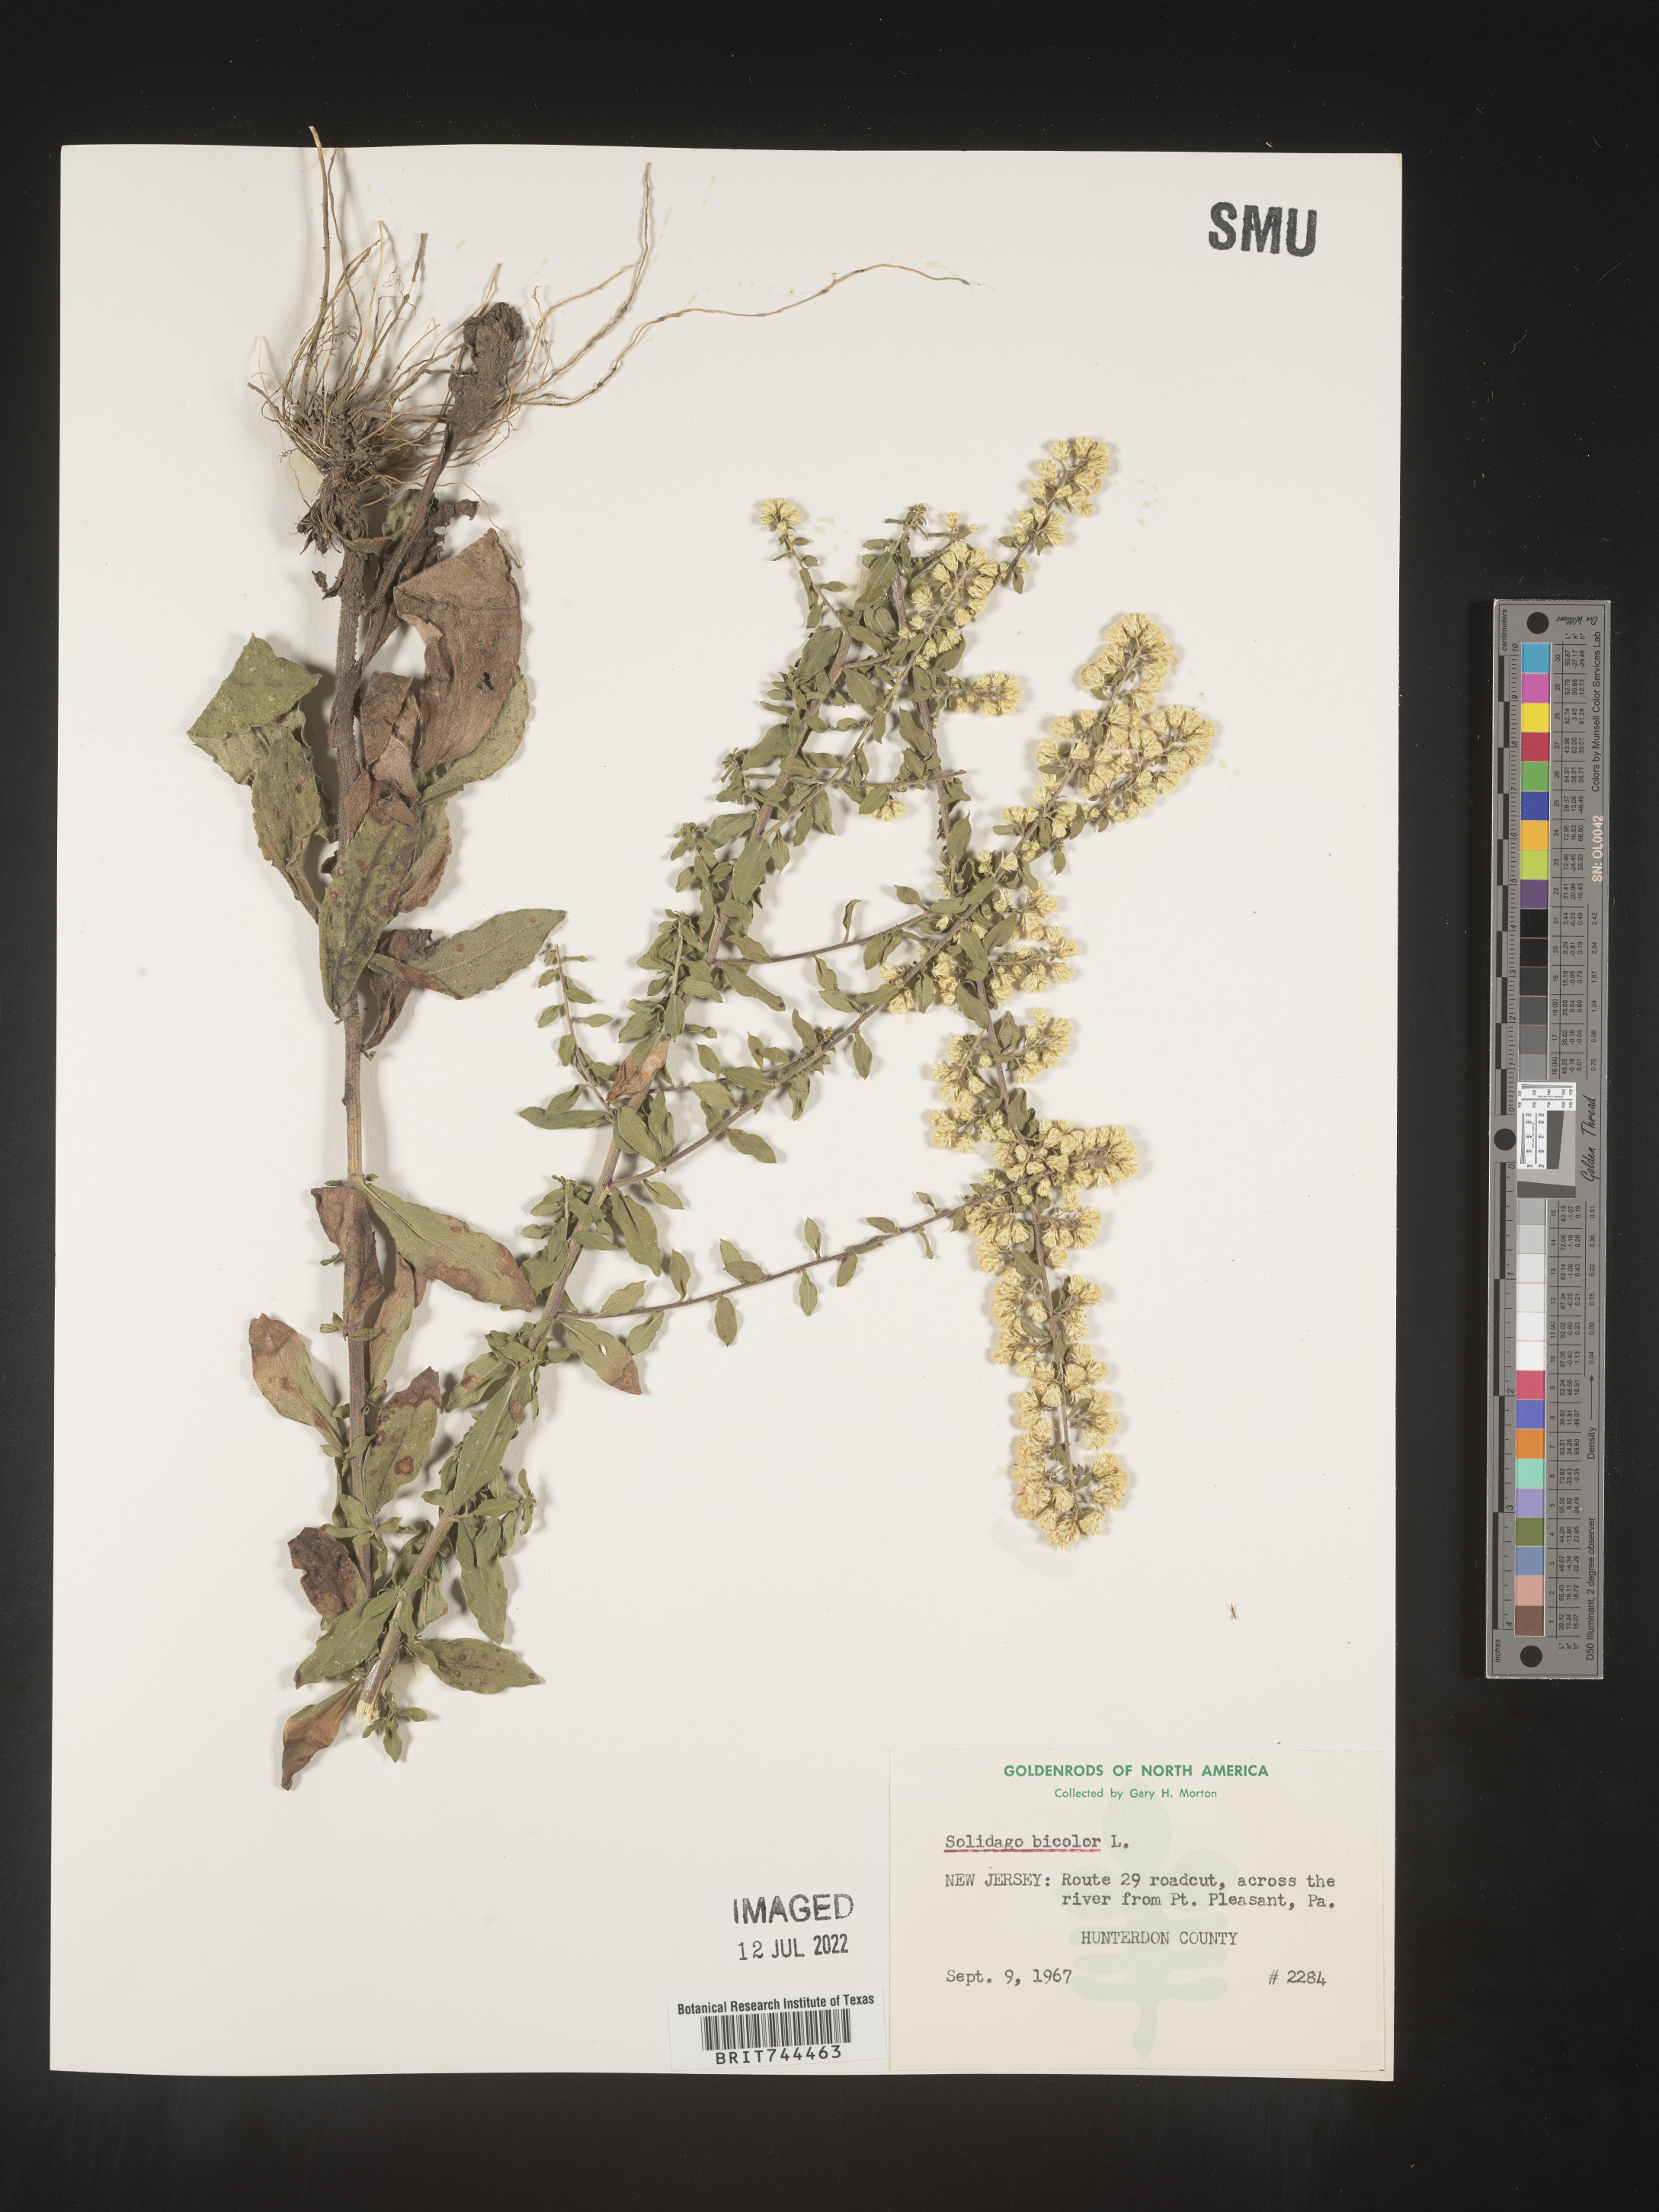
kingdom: Plantae
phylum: Tracheophyta
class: Magnoliopsida
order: Asterales
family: Asteraceae
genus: Solidago
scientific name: Solidago bicolor
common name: Silverrod
